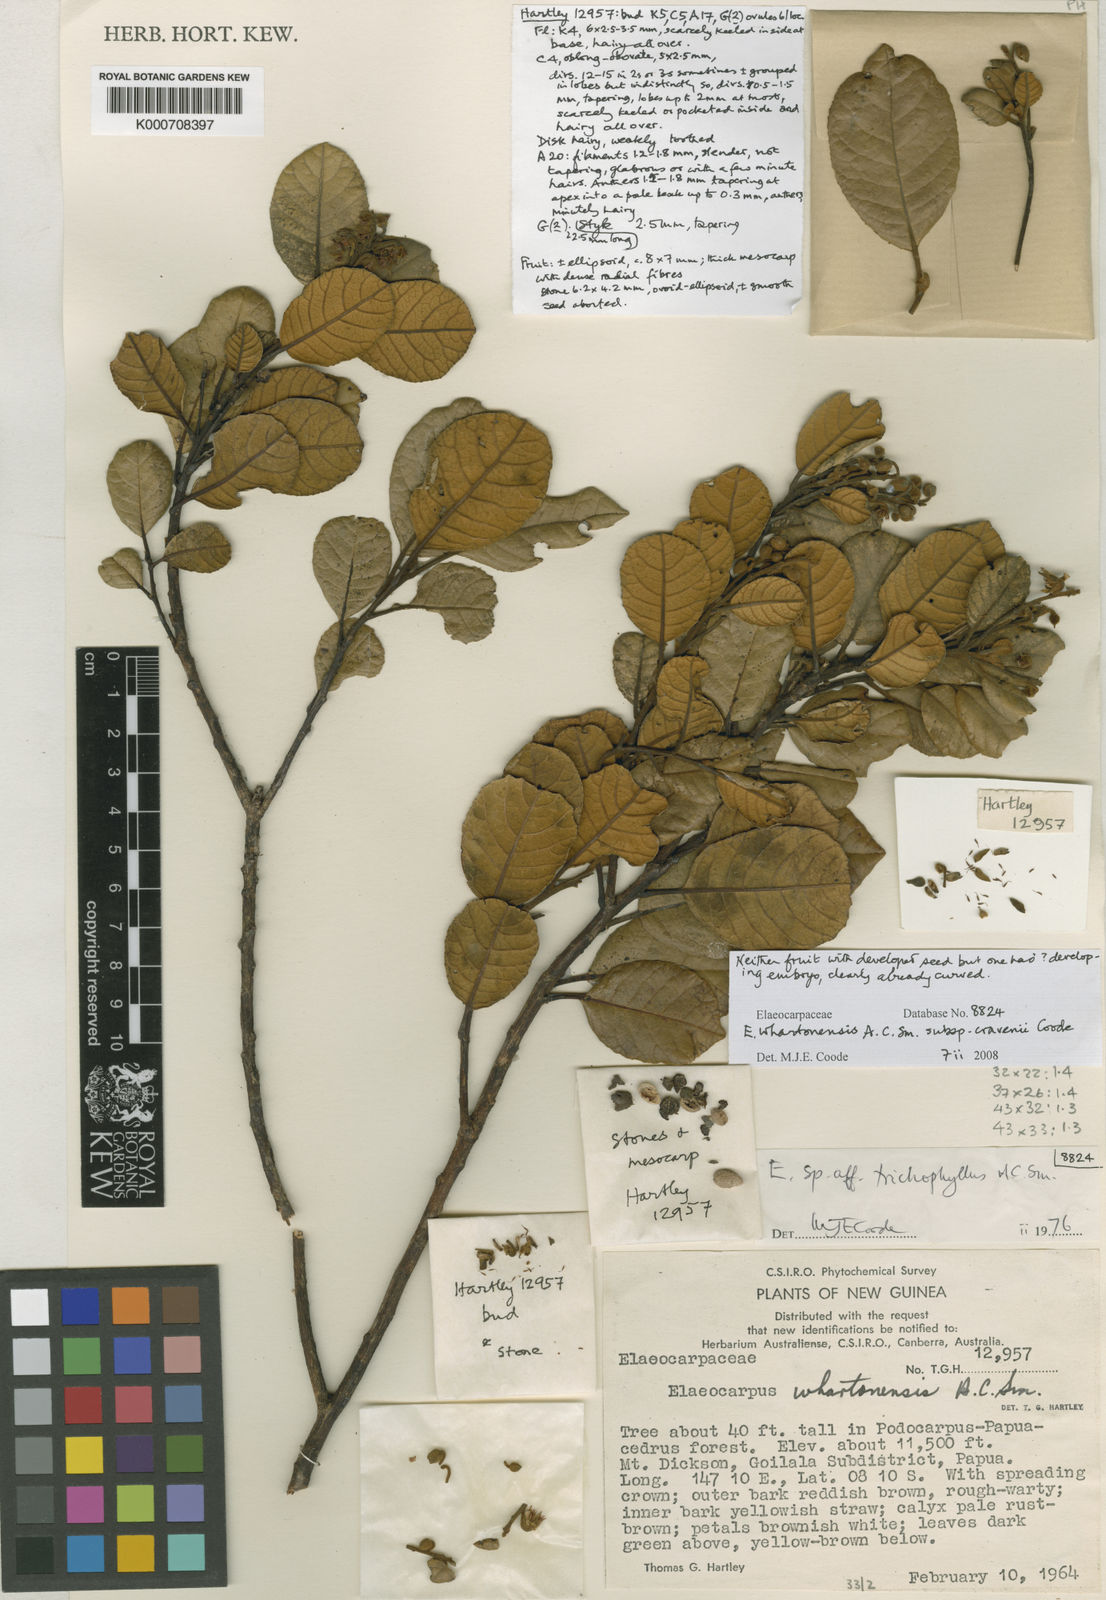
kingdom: Plantae
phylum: Tracheophyta
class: Magnoliopsida
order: Oxalidales
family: Elaeocarpaceae
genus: Elaeocarpus
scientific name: Elaeocarpus whartonensis
